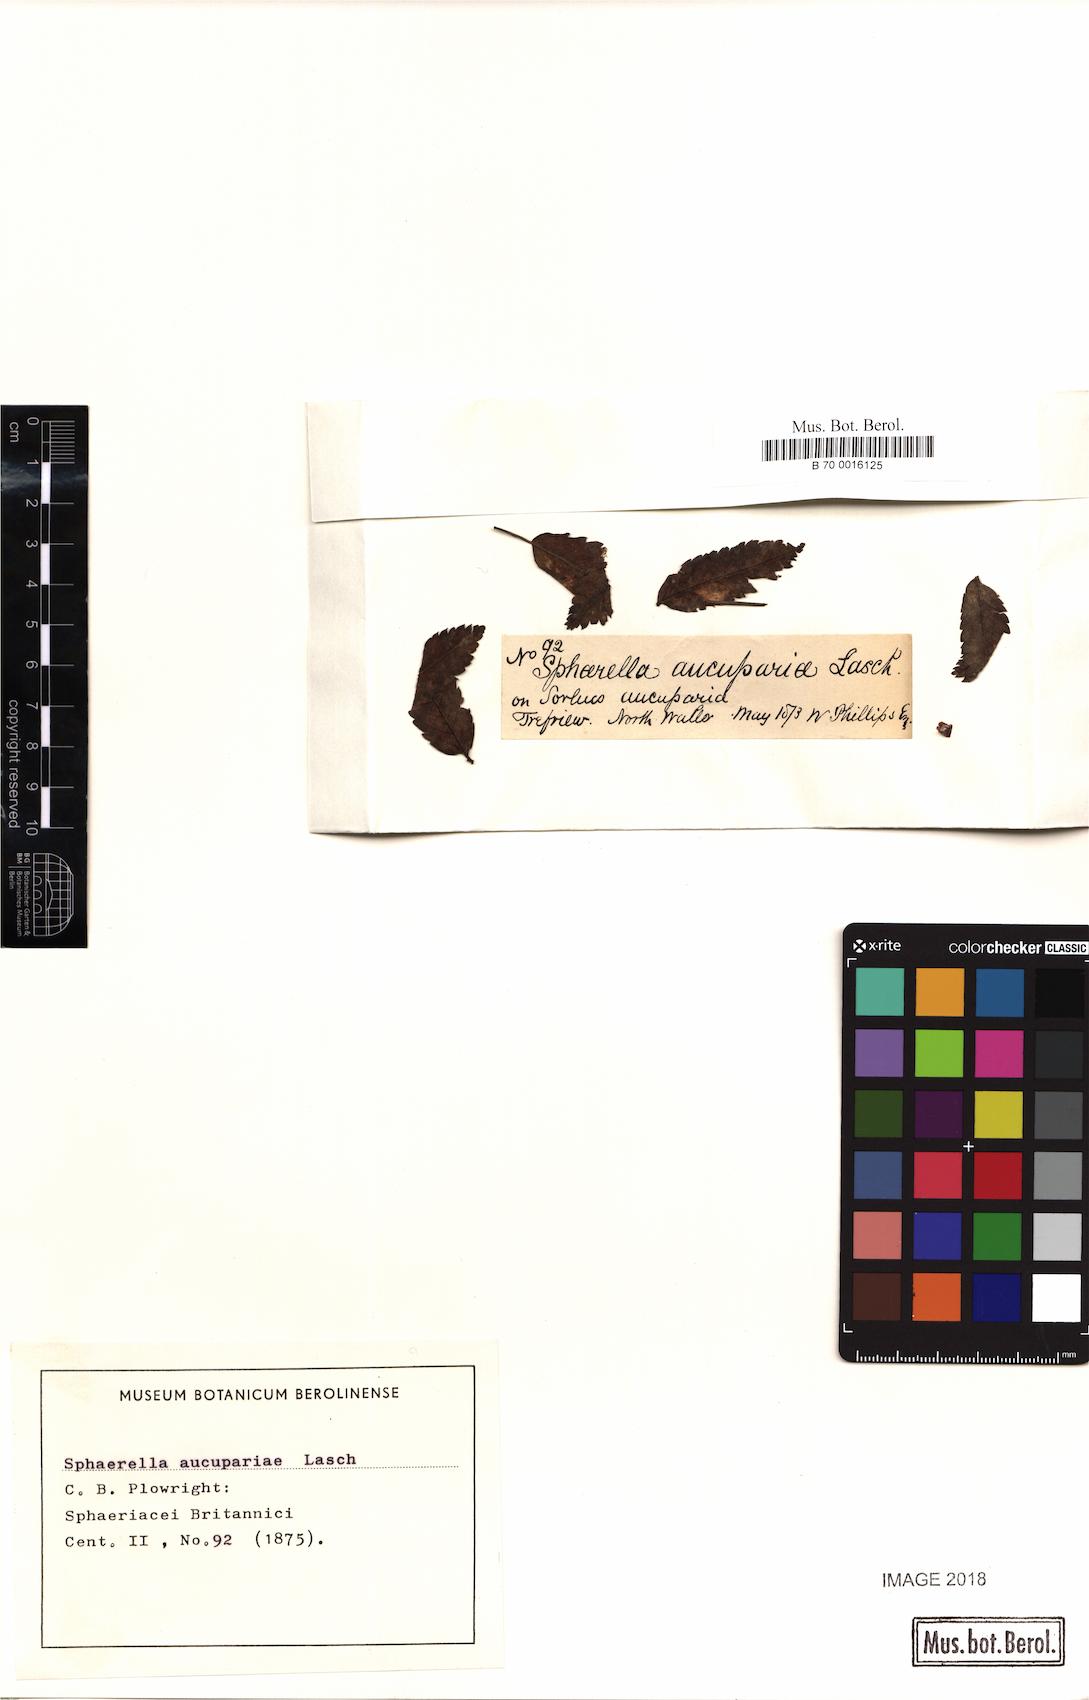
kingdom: Fungi
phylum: Ascomycota
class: Dothideomycetes
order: Mycosphaerellales
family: Mycosphaerellaceae
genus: Sphaerella
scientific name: Sphaerella
